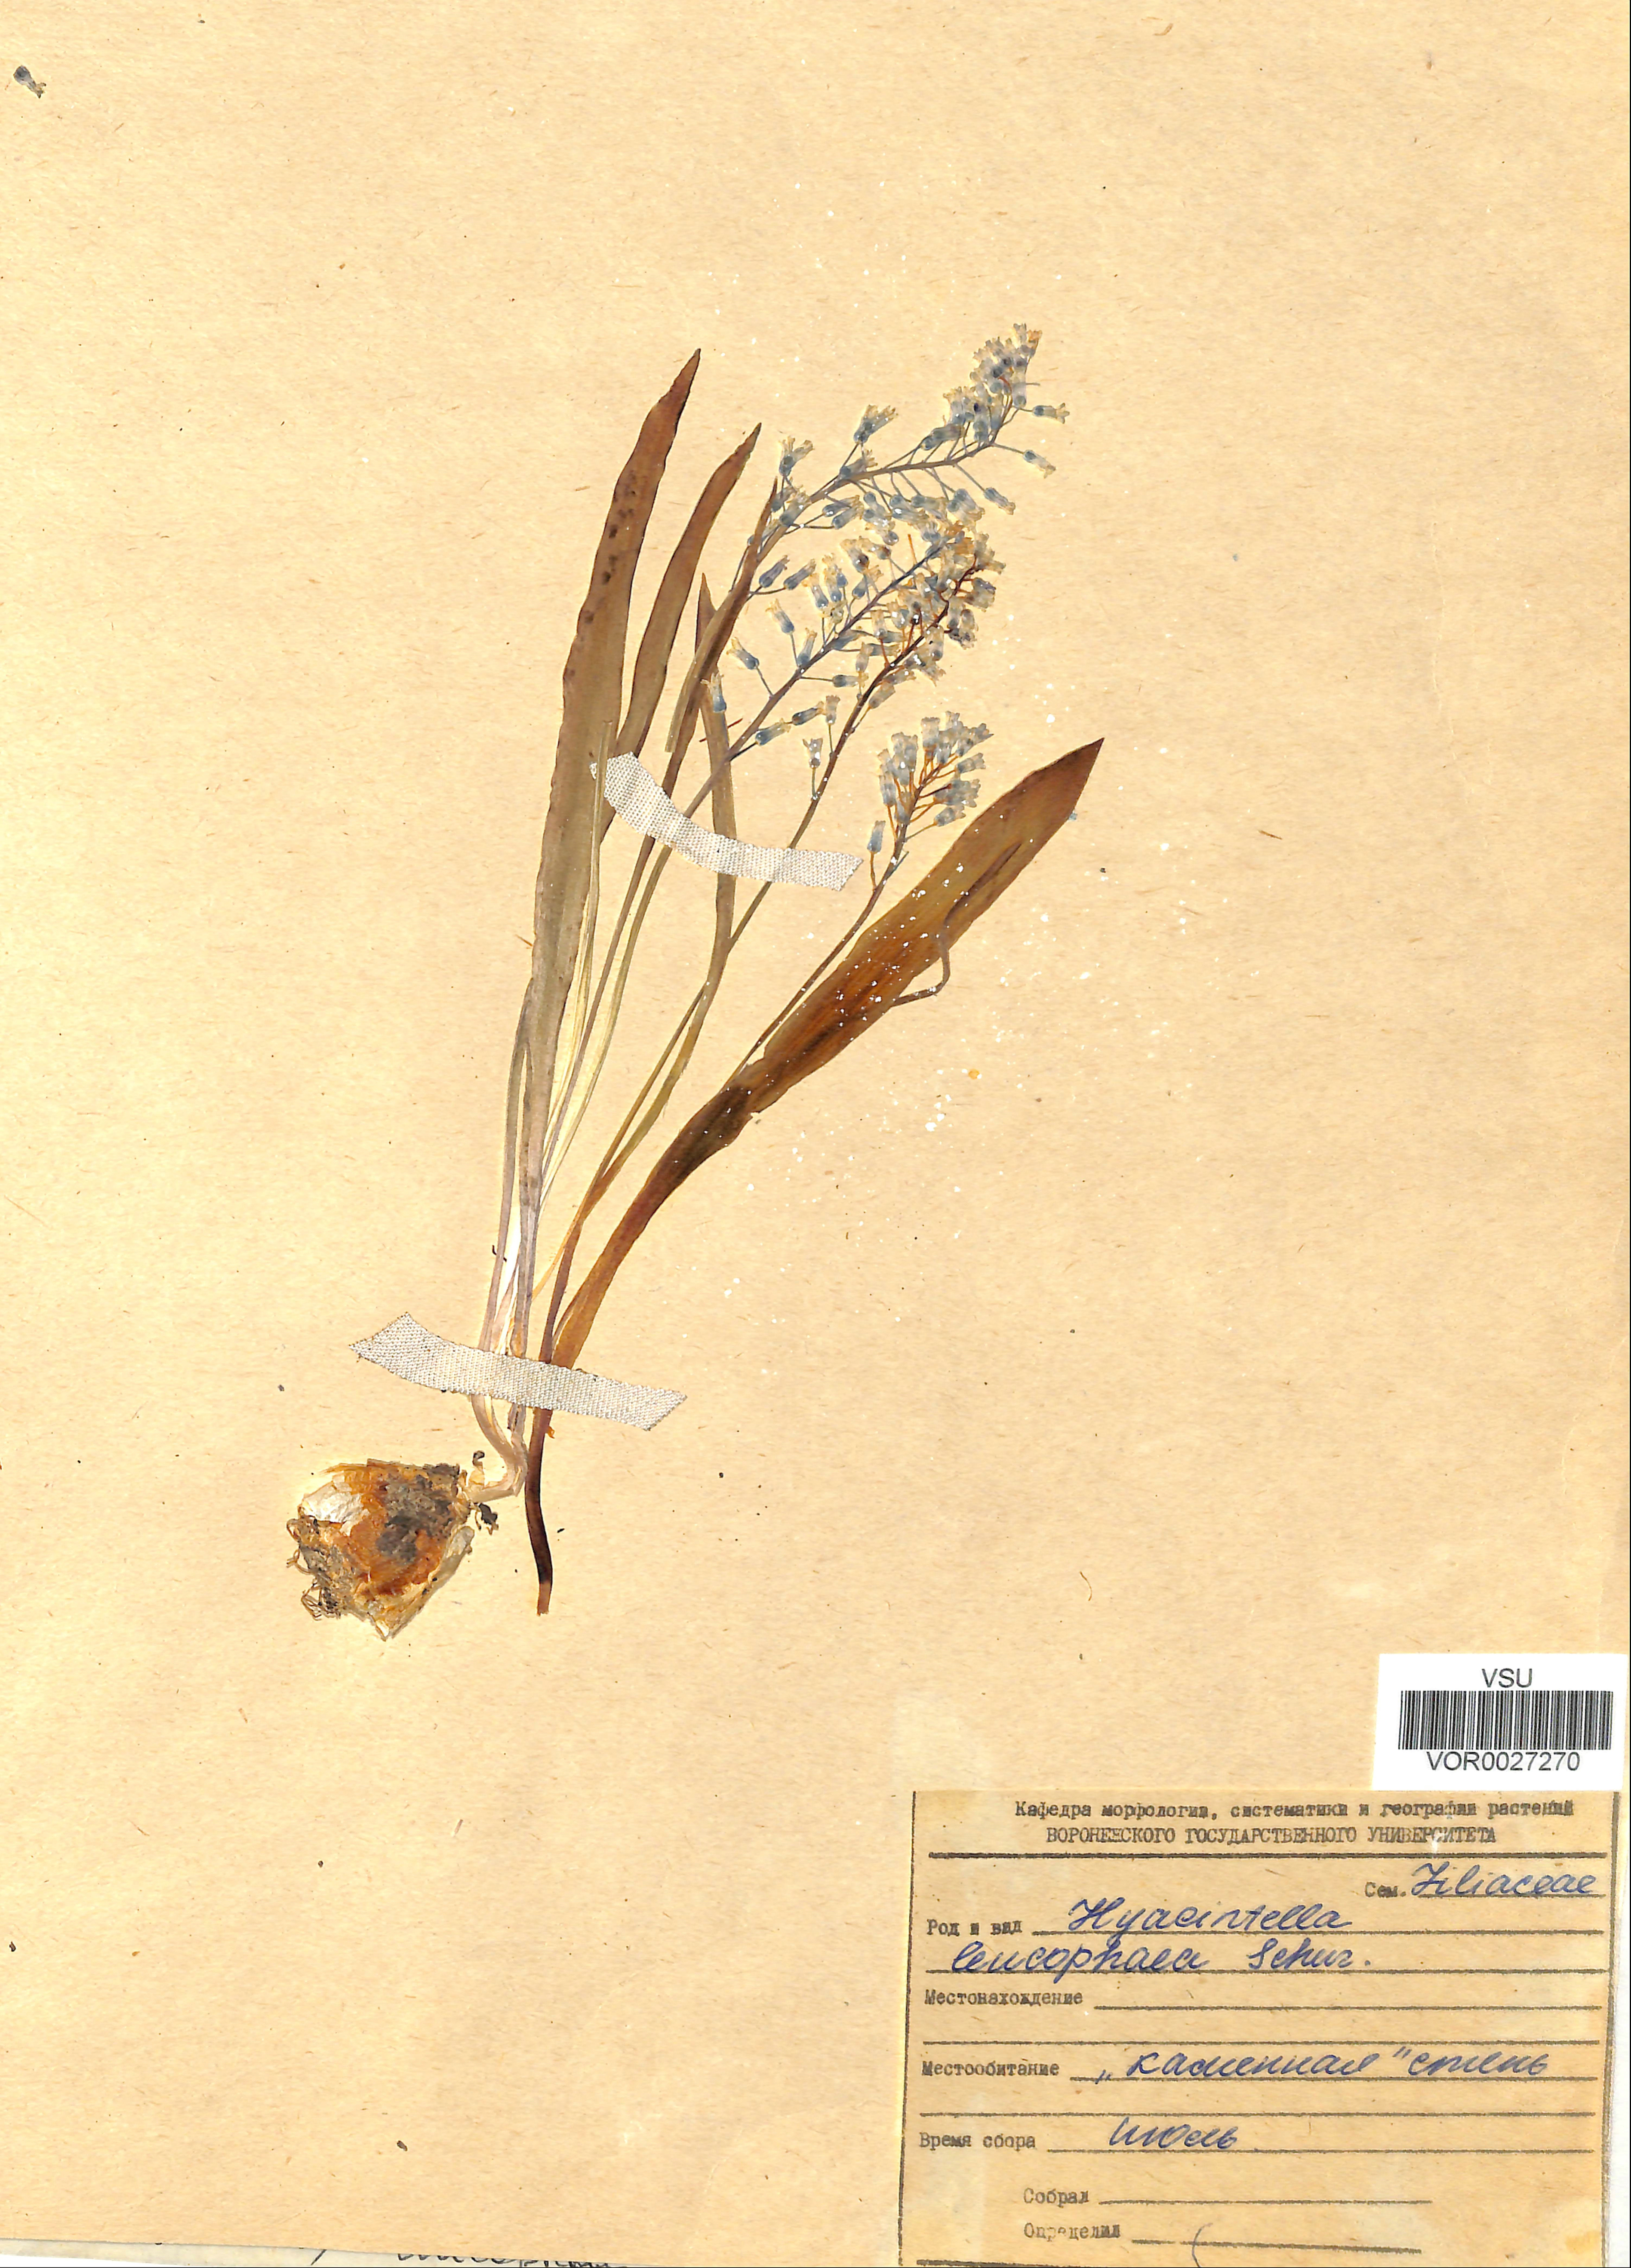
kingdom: Plantae
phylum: Tracheophyta
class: Liliopsida
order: Asparagales
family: Asparagaceae
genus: Hyacinthella
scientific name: Hyacinthella leucophaea
